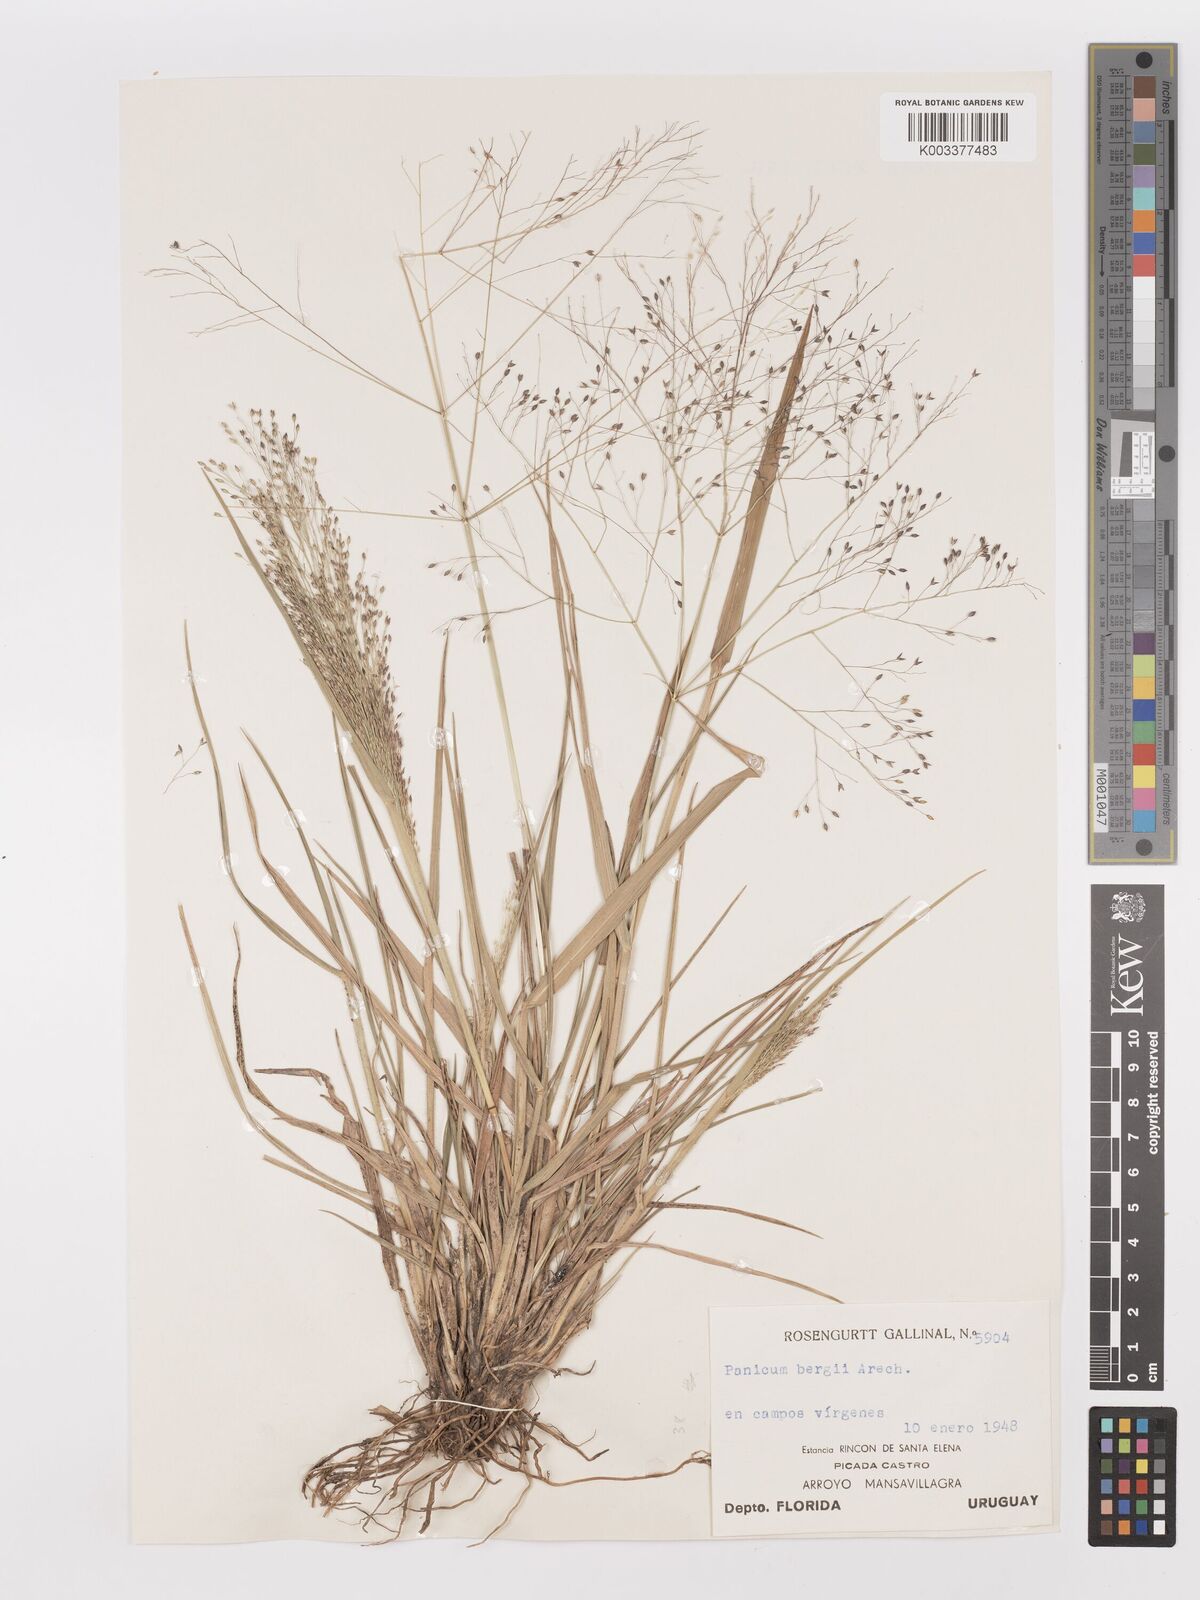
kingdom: Plantae
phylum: Tracheophyta
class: Liliopsida
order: Poales
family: Poaceae
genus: Panicum
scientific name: Panicum bergii
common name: Berg's panicgrass
